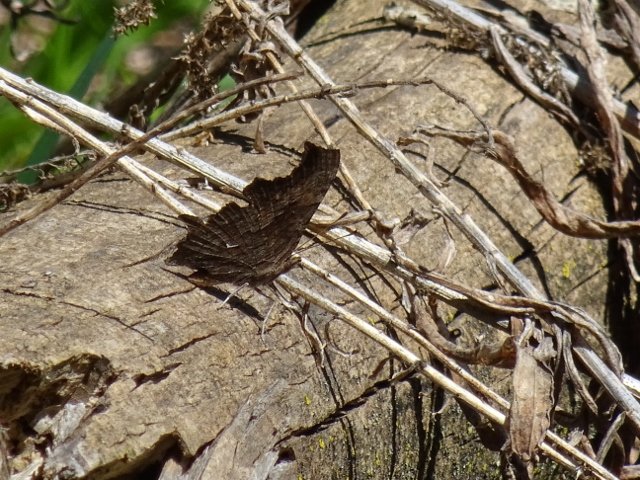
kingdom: Animalia
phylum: Arthropoda
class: Insecta
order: Lepidoptera
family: Nymphalidae
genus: Polygonia
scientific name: Polygonia progne
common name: Gray Comma
